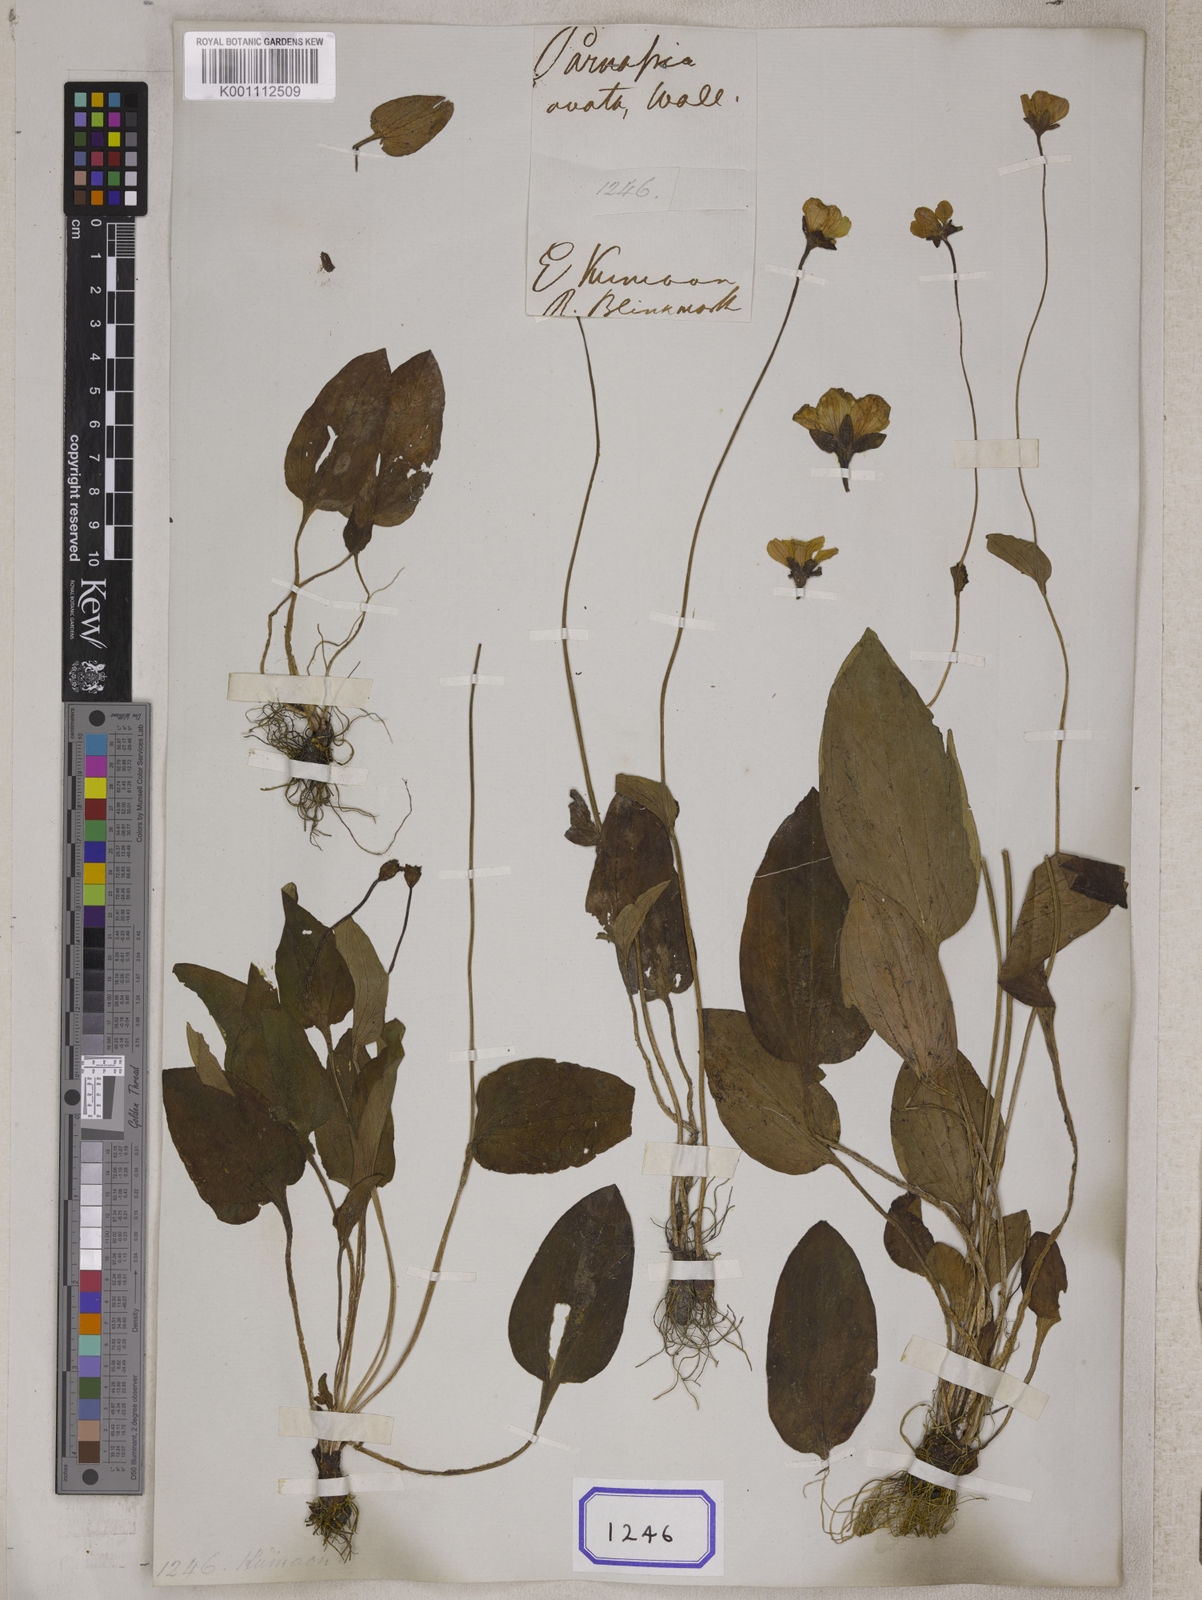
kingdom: Plantae
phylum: Tracheophyta
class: Magnoliopsida
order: Celastrales
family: Parnassiaceae
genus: Parnassia
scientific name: Parnassia
